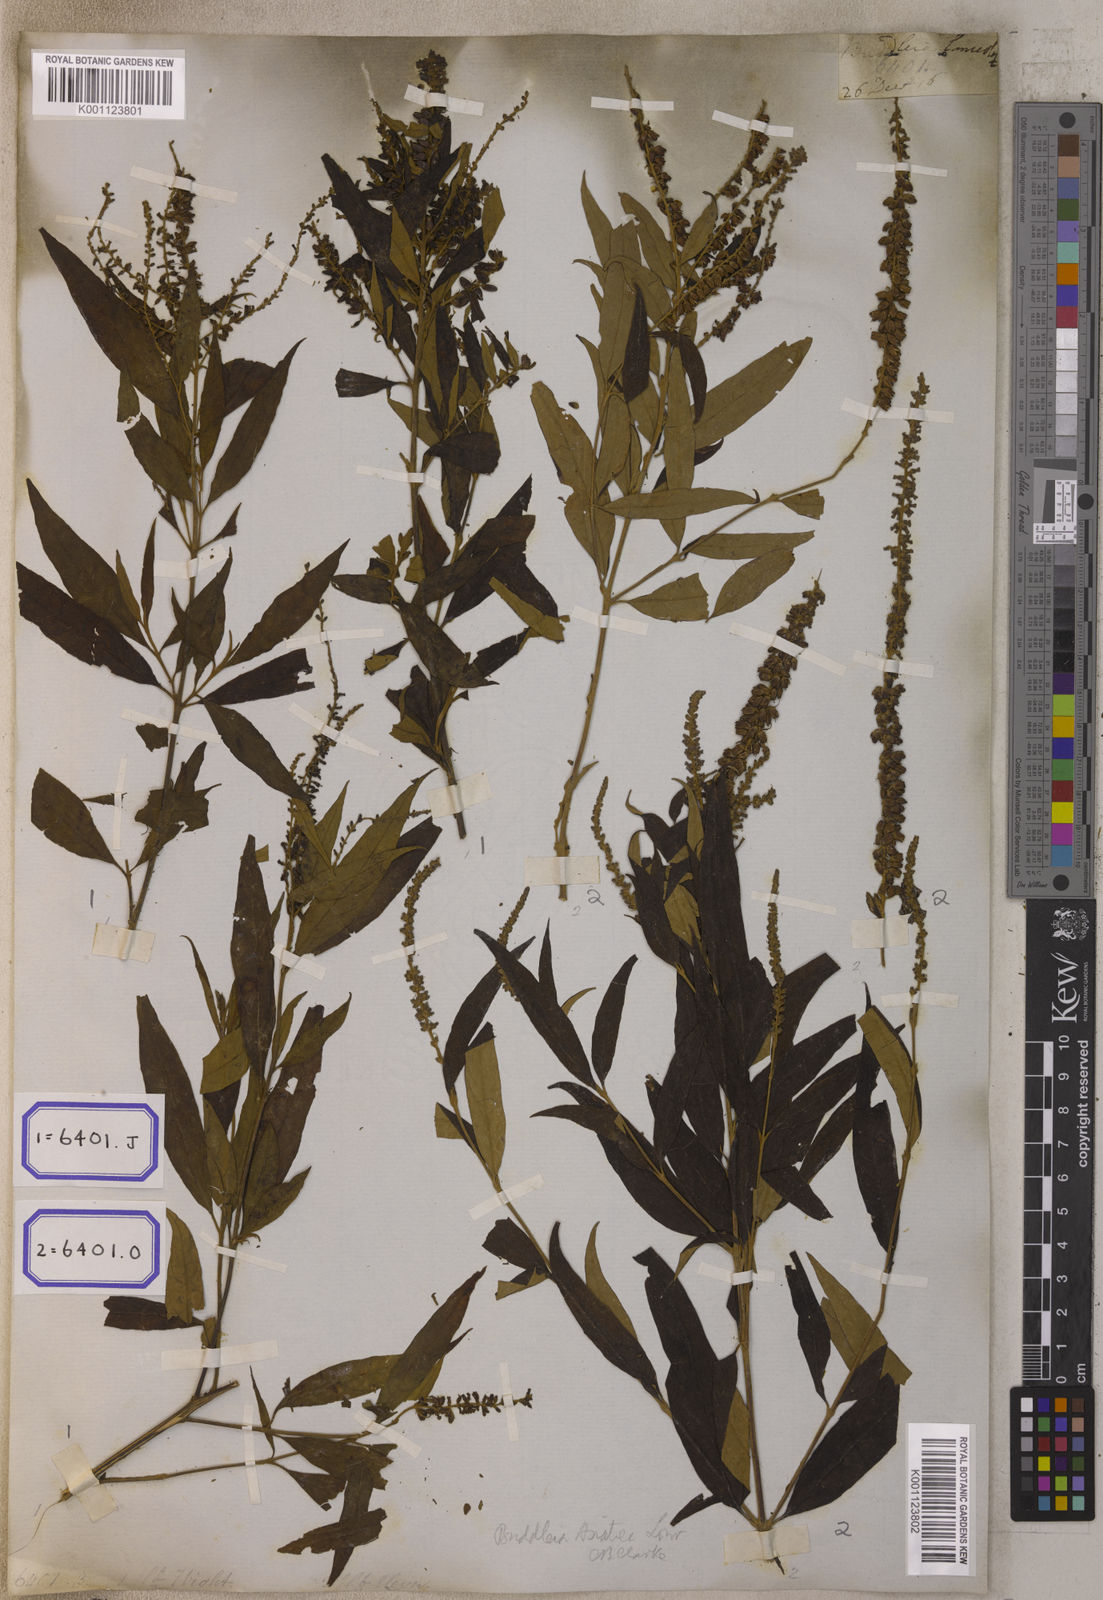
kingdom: Plantae
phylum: Tracheophyta
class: Magnoliopsida
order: Lamiales
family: Scrophulariaceae
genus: Buddleja
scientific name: Buddleja
